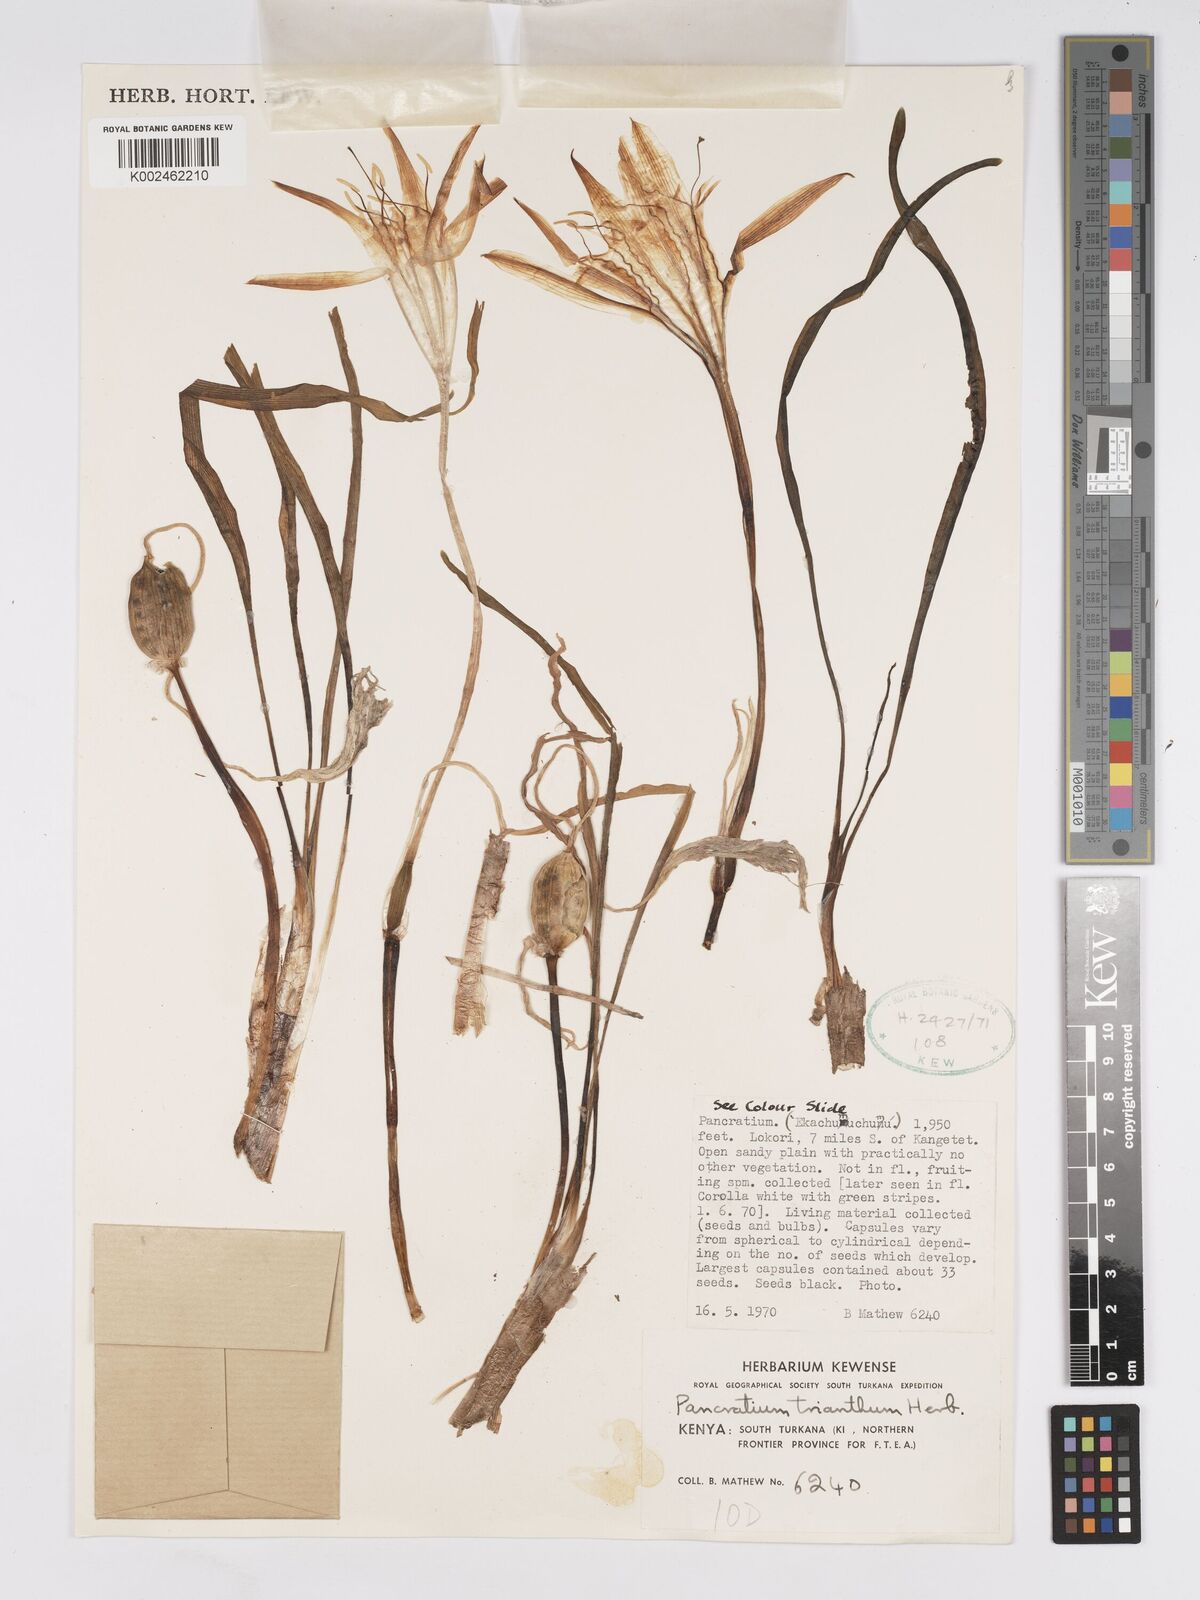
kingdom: Plantae
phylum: Tracheophyta
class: Liliopsida
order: Asparagales
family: Amaryllidaceae
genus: Pancratium
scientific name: Pancratium tenuifolium
